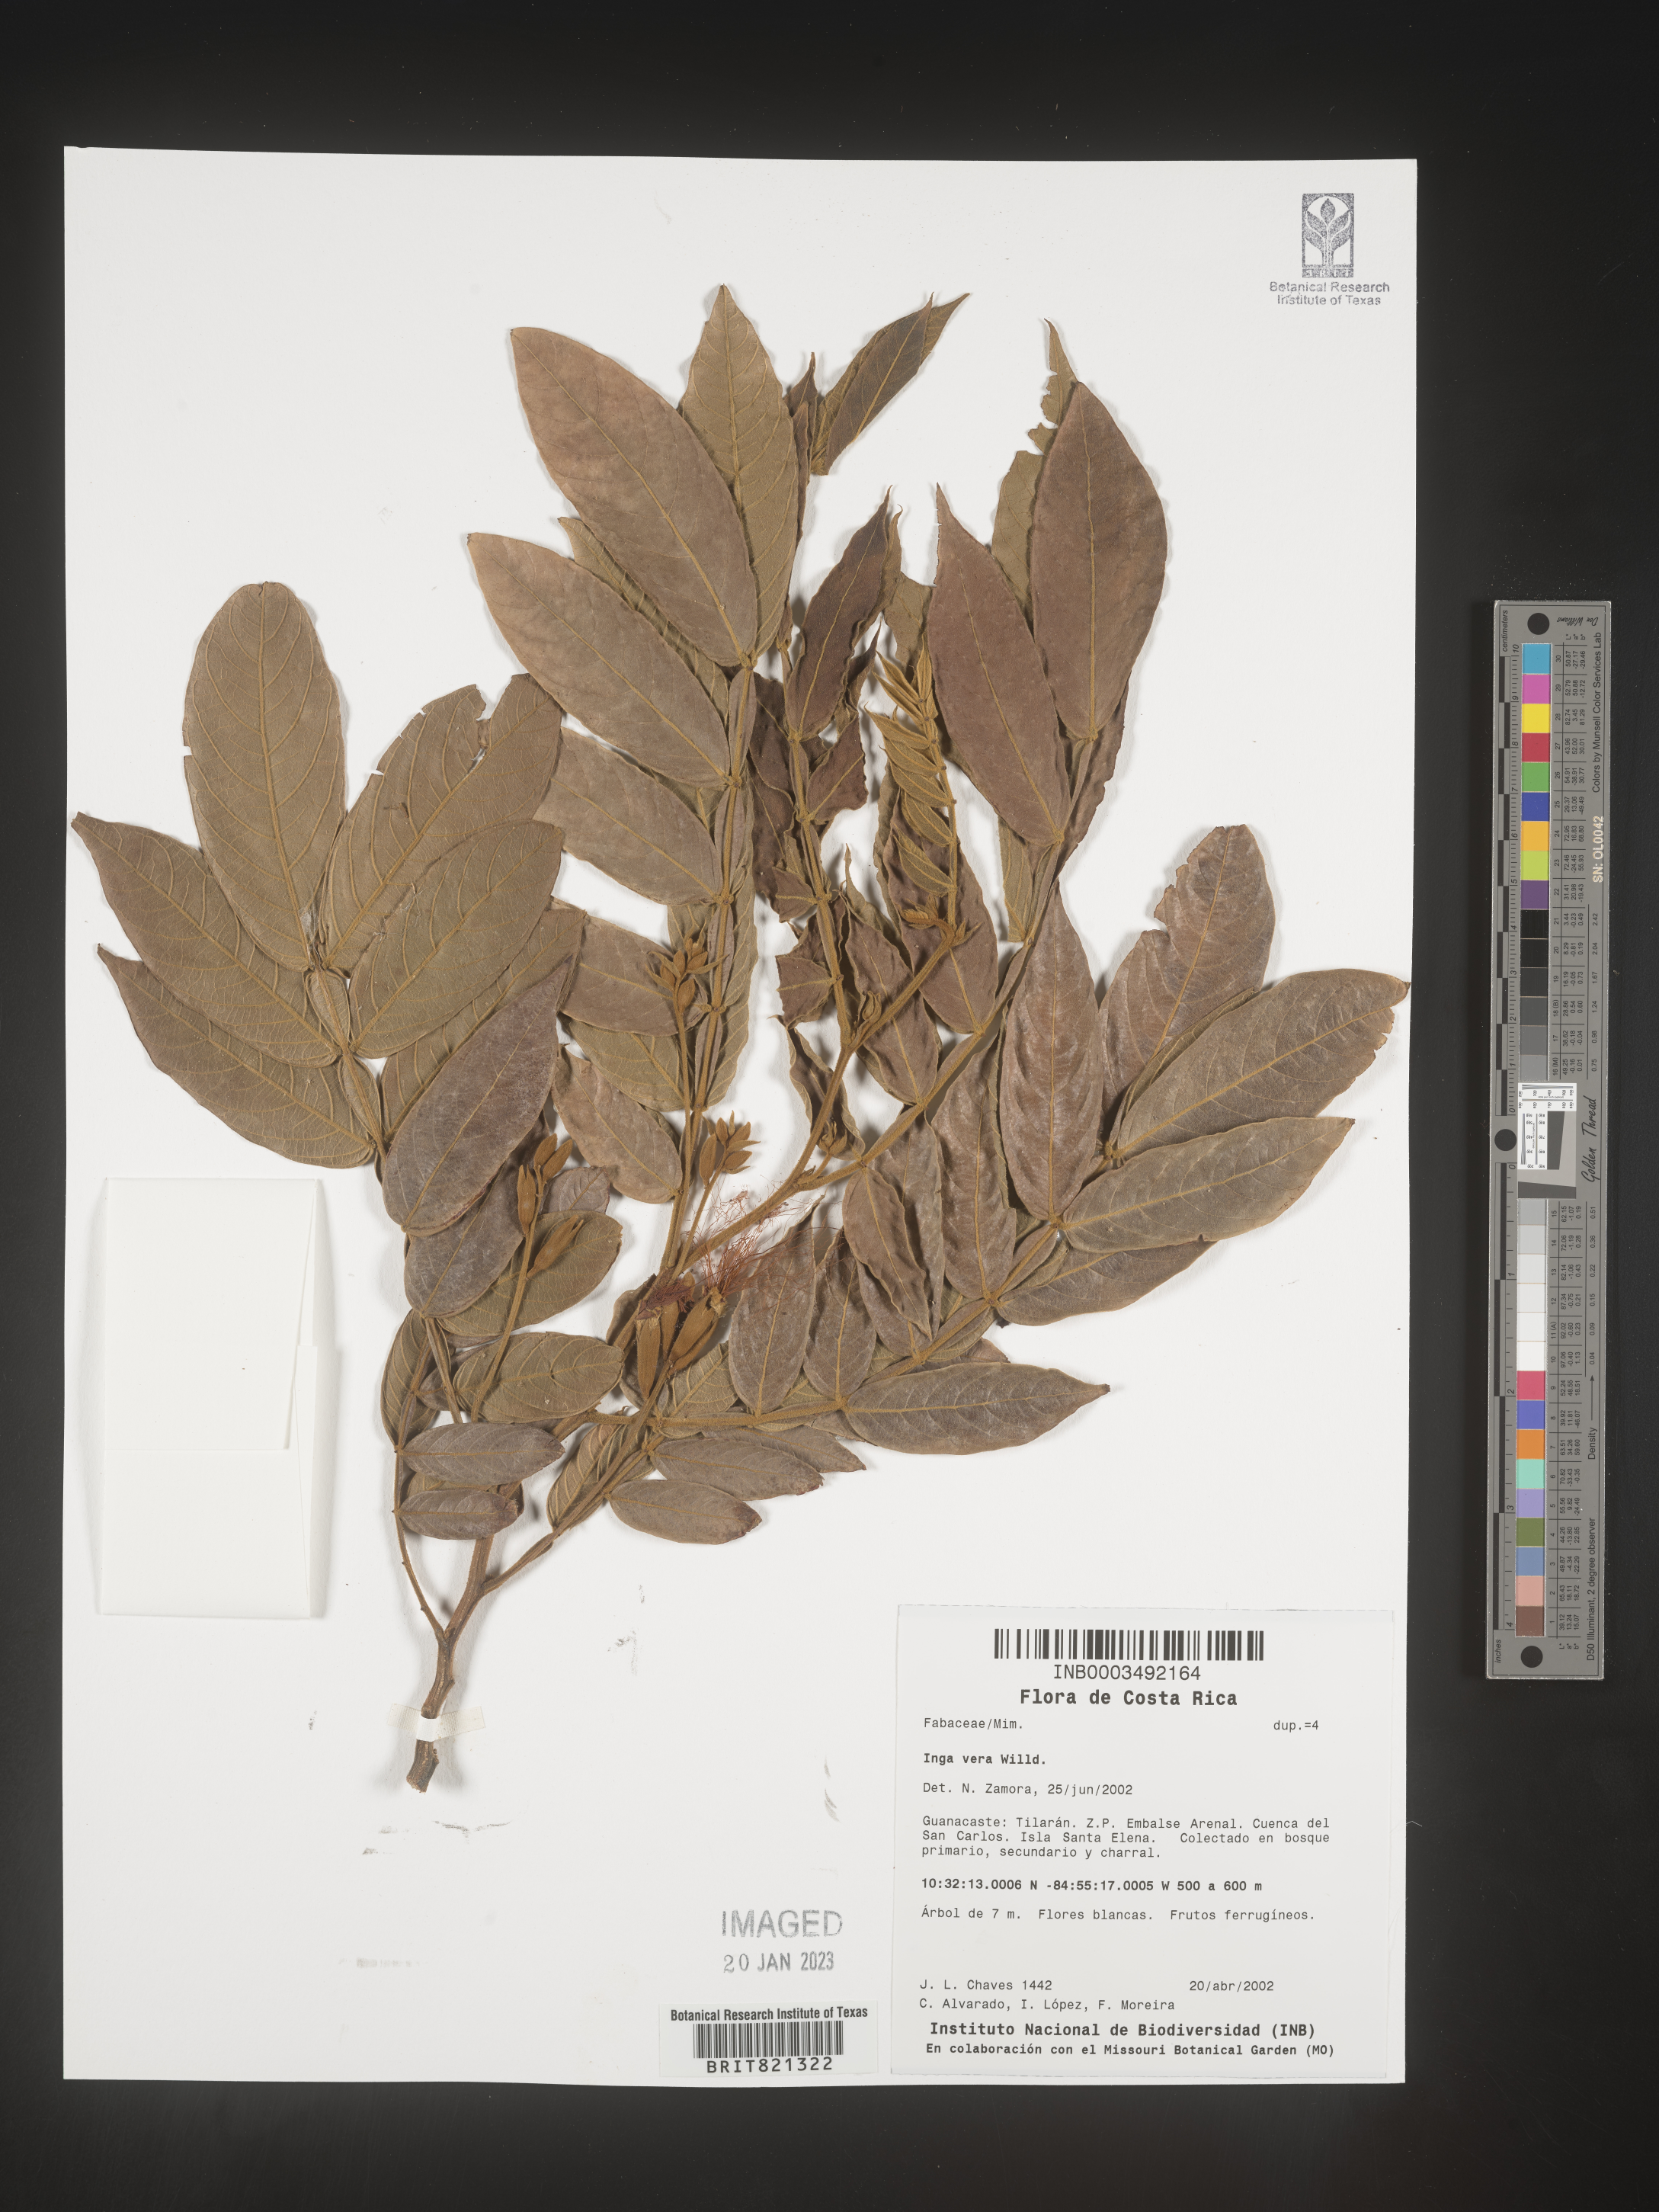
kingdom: Plantae
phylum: Tracheophyta
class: Magnoliopsida
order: Fabales
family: Fabaceae
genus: Inga
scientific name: Inga
